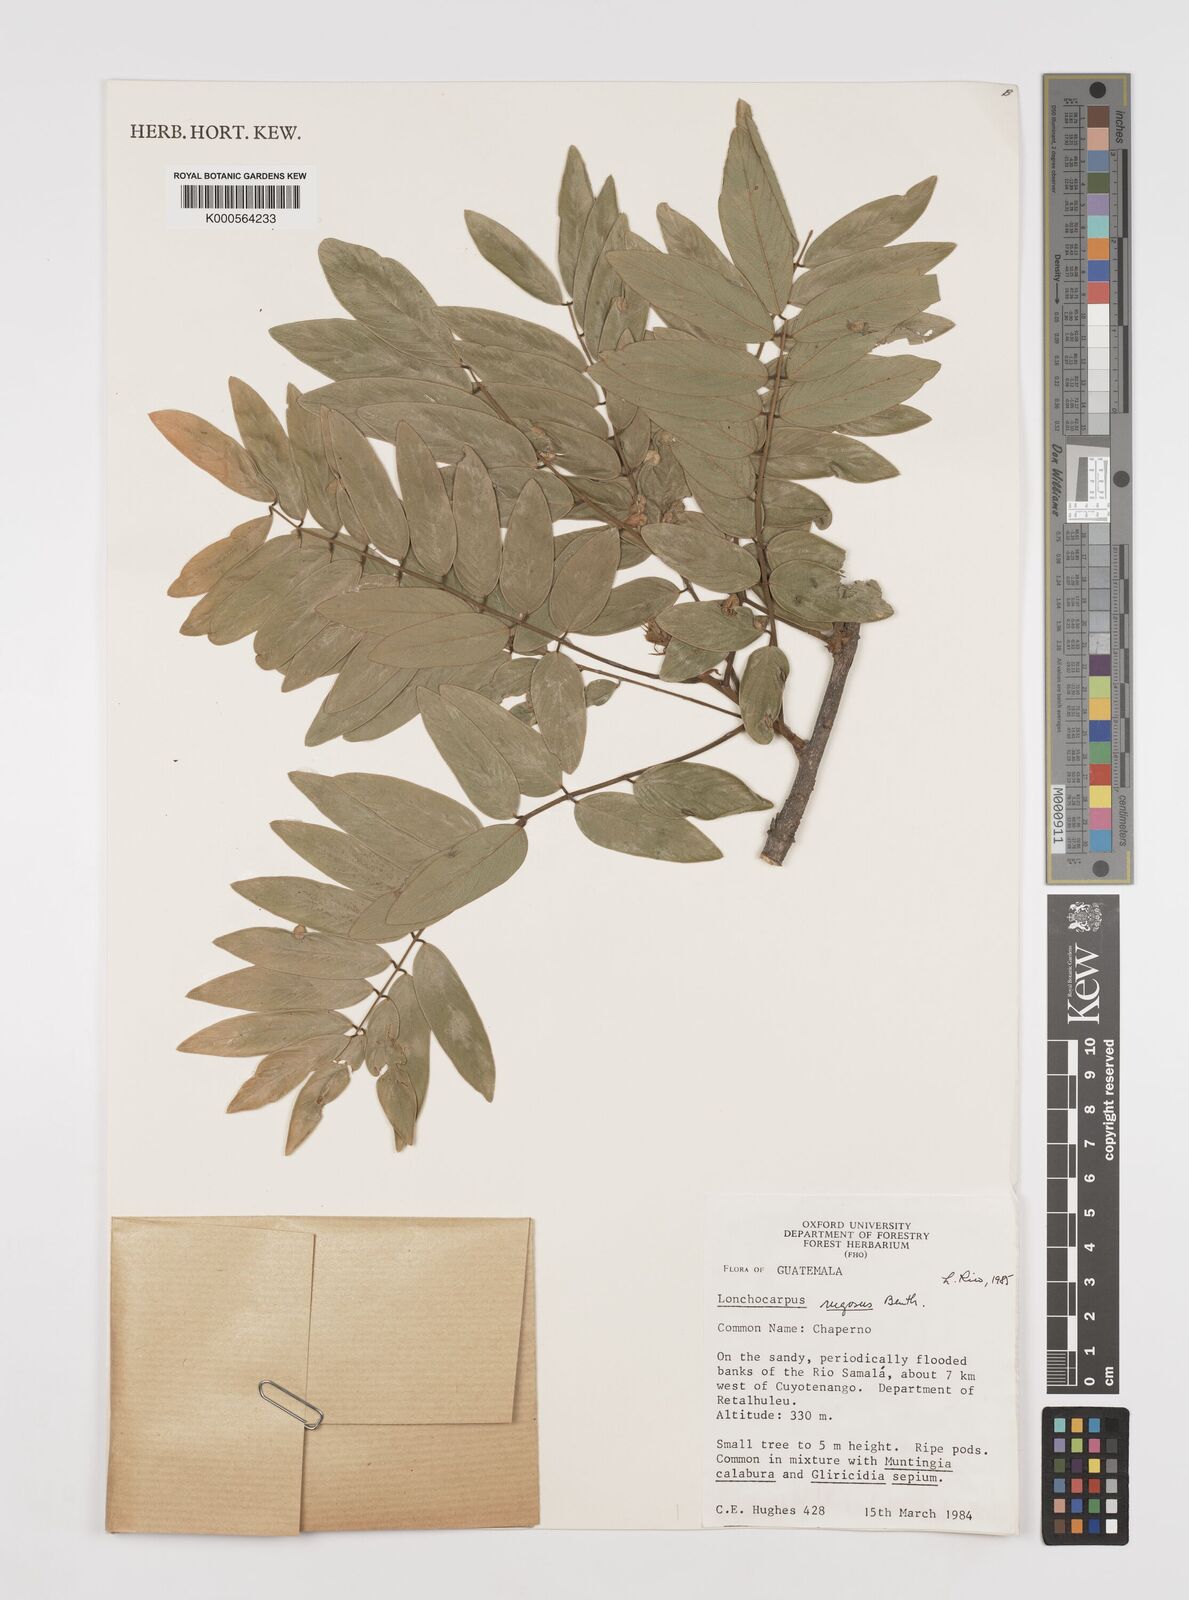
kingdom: Plantae
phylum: Tracheophyta
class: Magnoliopsida
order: Fabales
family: Fabaceae
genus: Lonchocarpus
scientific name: Lonchocarpus rugosus
